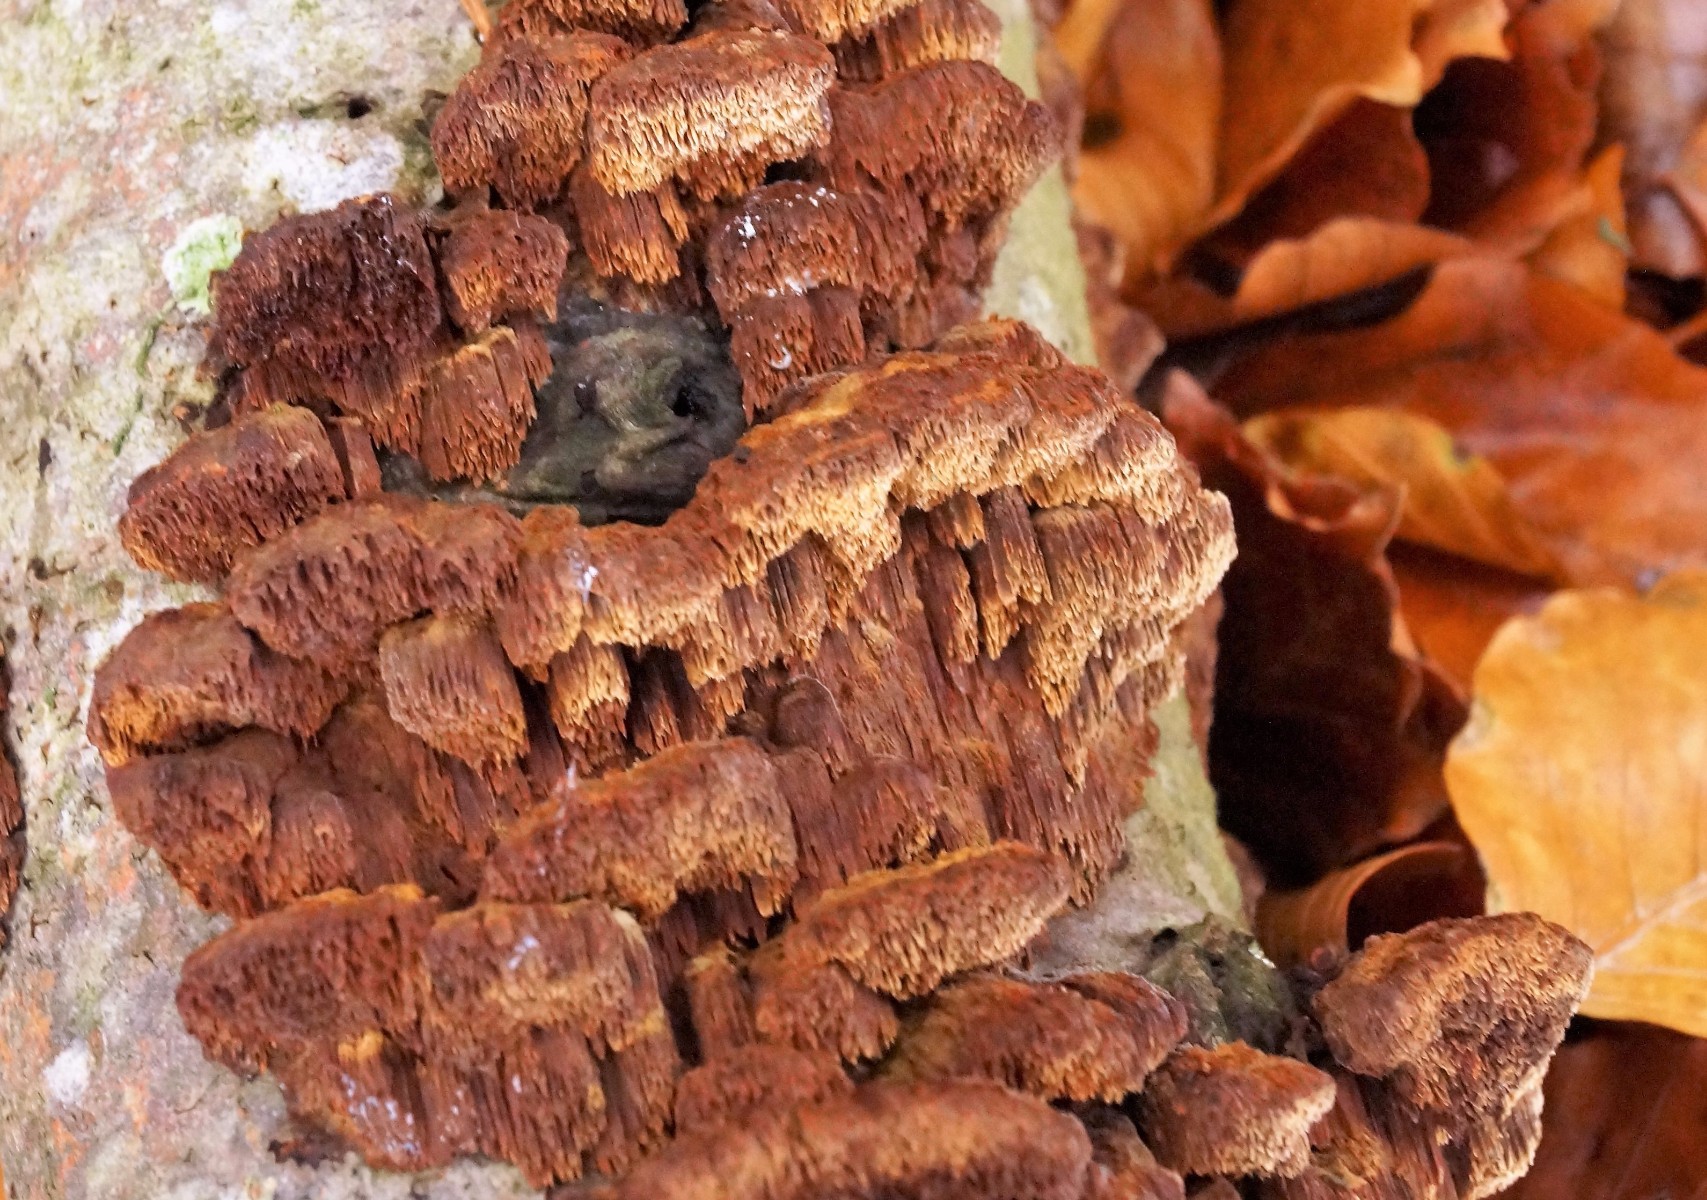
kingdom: Fungi
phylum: Basidiomycota
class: Agaricomycetes
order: Hymenochaetales
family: Hymenochaetaceae
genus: Mensularia
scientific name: Mensularia nodulosa
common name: bøge-spejlporesvamp
